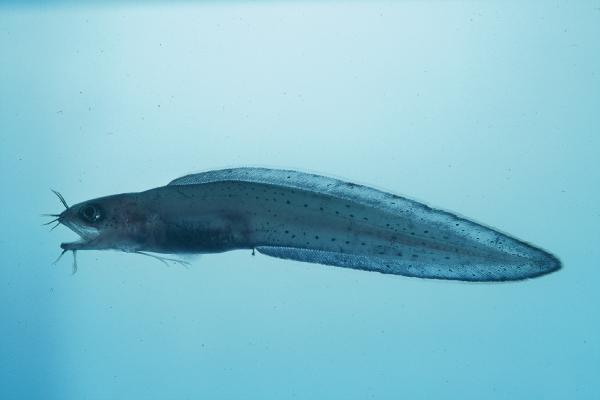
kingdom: Animalia
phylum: Chordata
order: Ophidiiformes
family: Ophidiidae
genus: Brotula
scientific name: Brotula multibarbata
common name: Goatsbeard brotula
